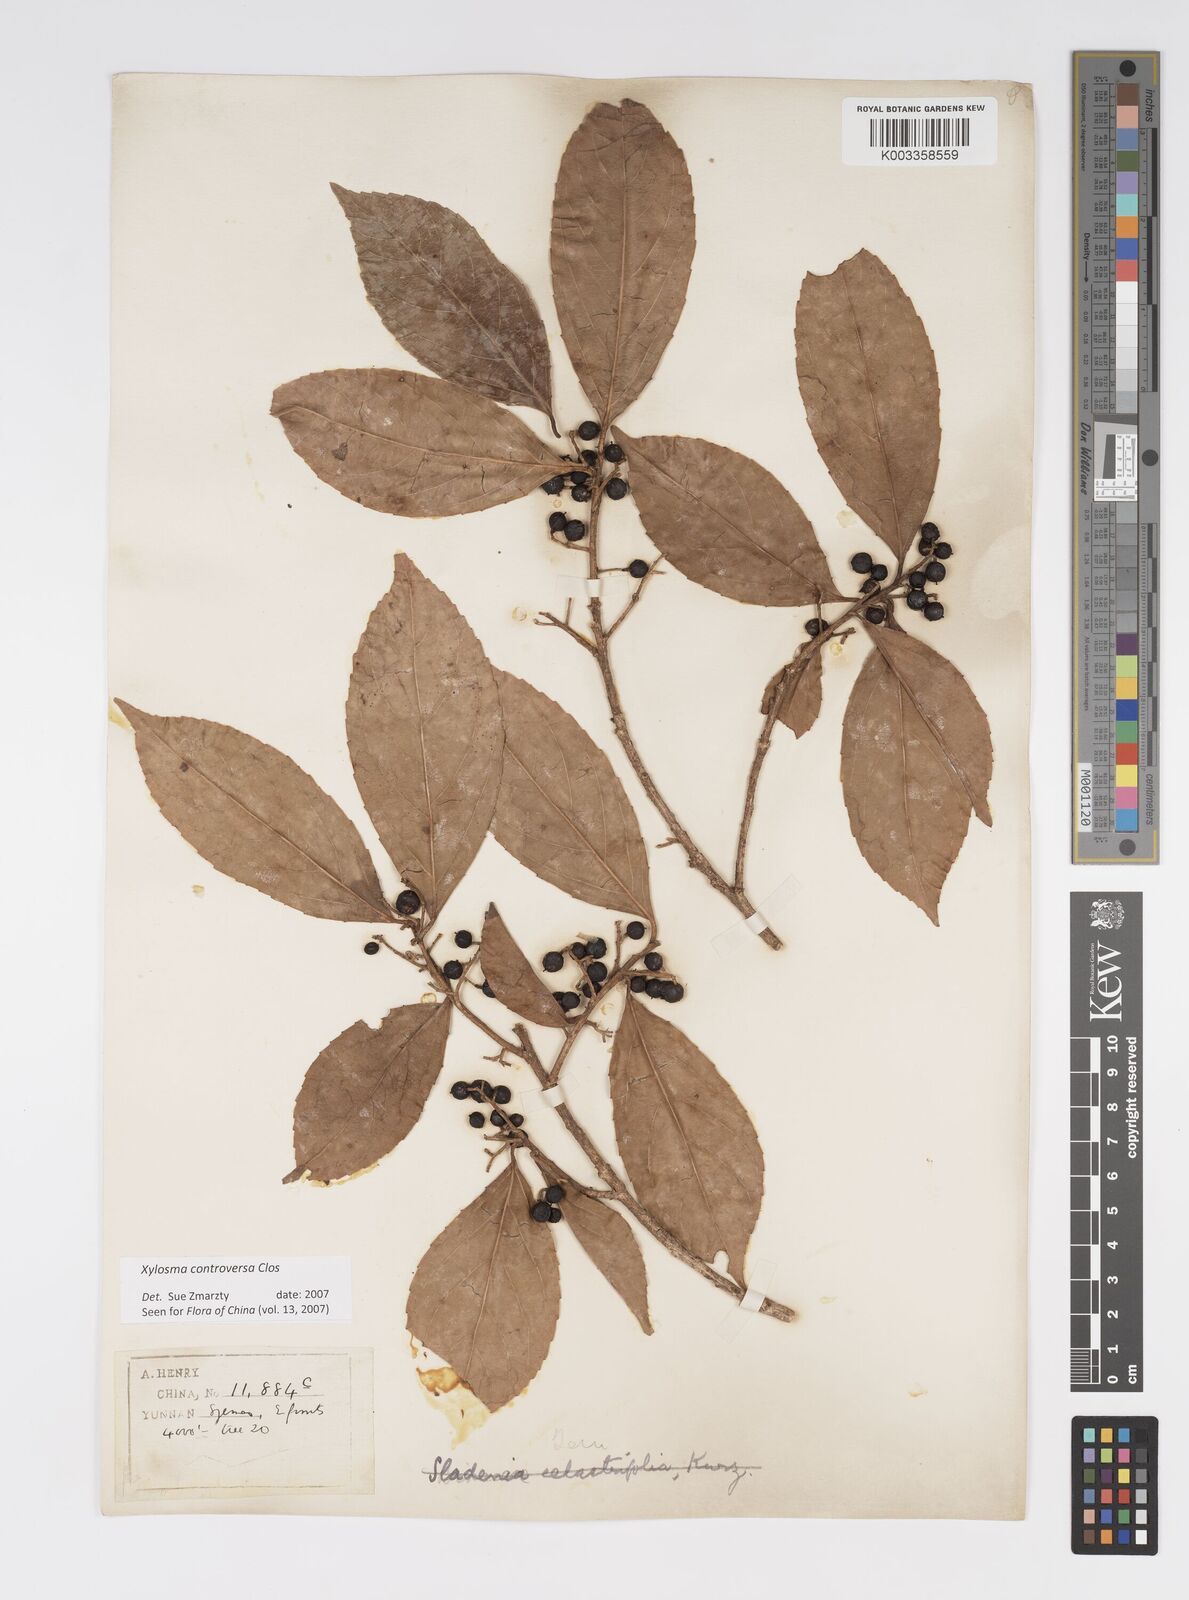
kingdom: Plantae
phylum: Tracheophyta
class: Magnoliopsida
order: Malpighiales
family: Salicaceae
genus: Xylosma
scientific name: Xylosma controversa
